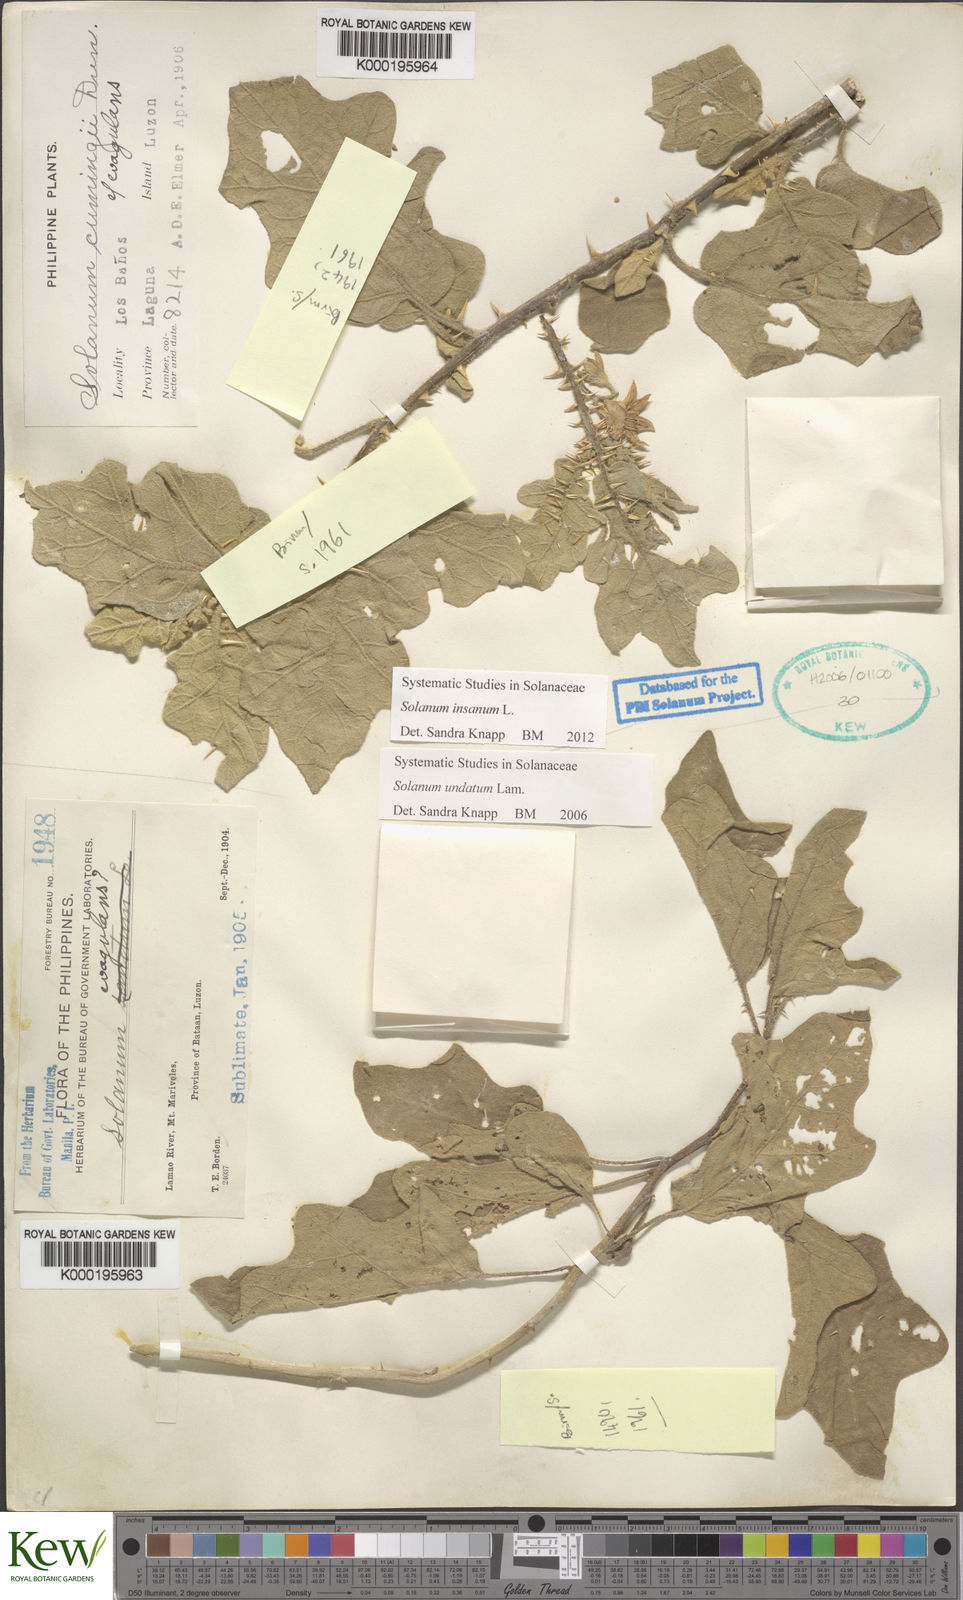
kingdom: Plantae
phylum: Tracheophyta
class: Magnoliopsida
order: Solanales
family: Solanaceae
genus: Solanum
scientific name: Solanum insanum
